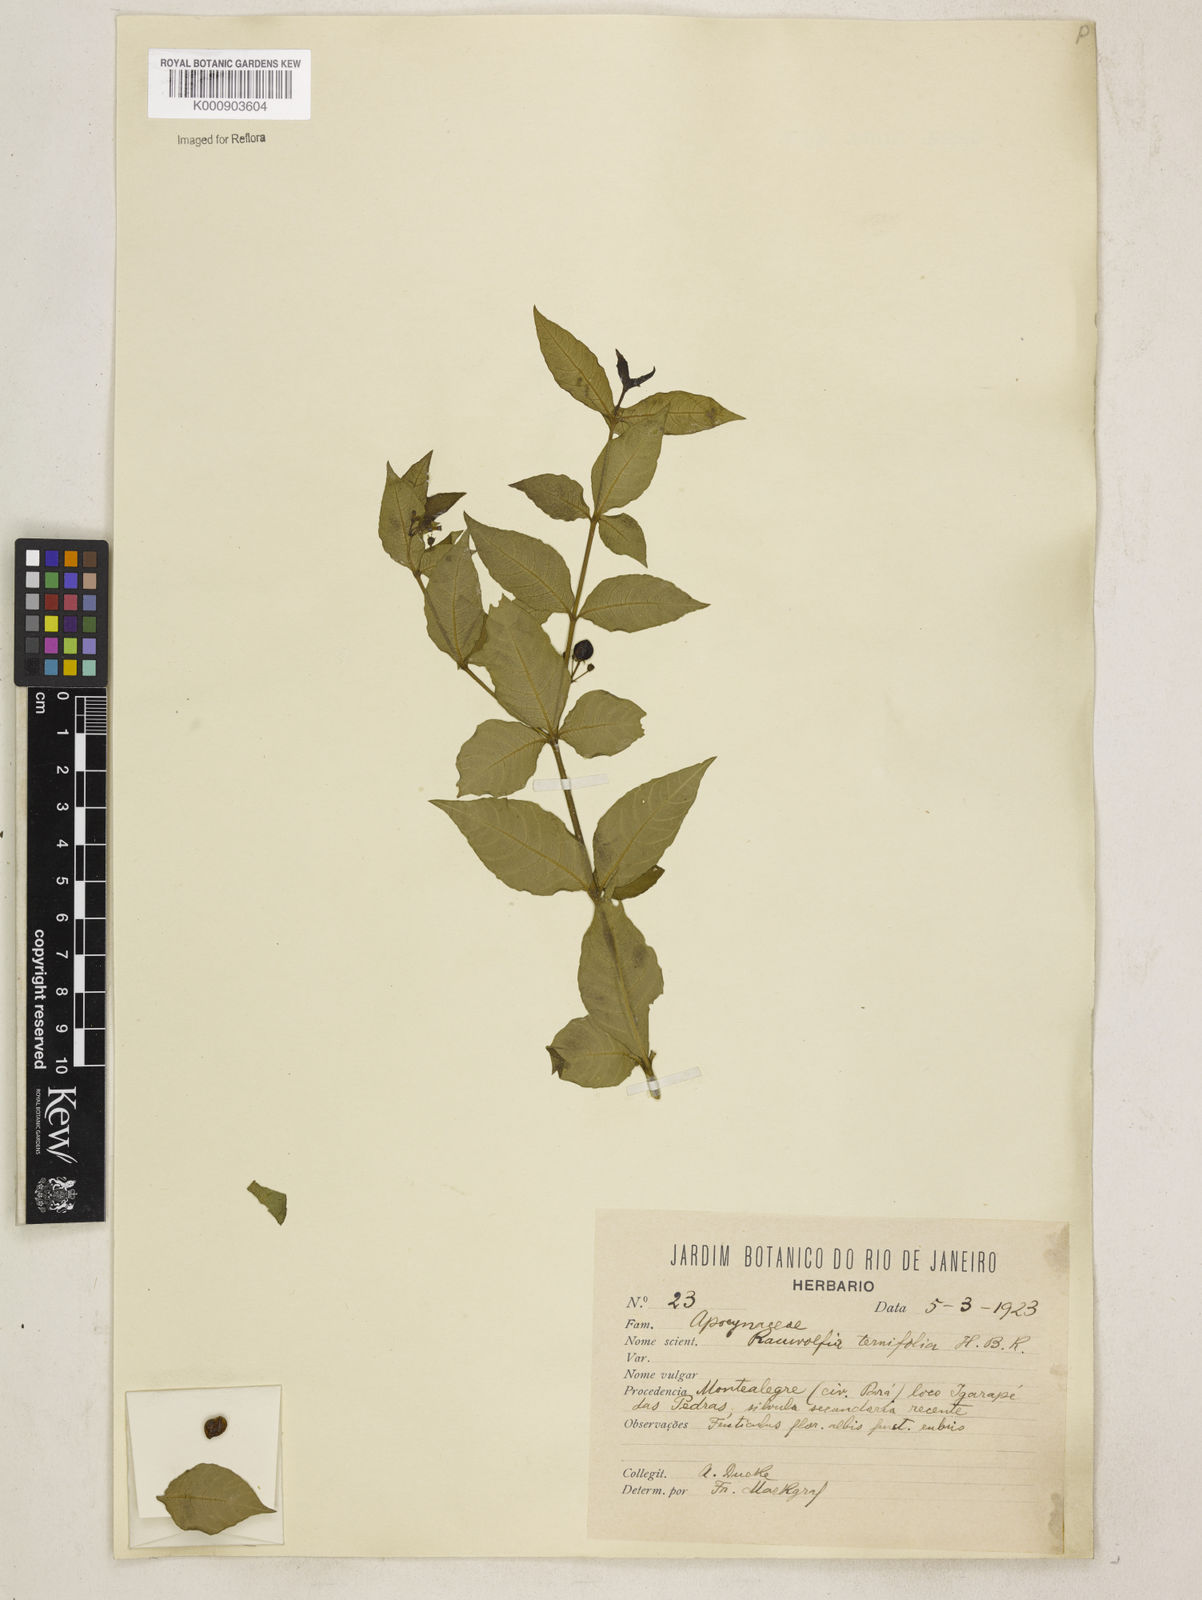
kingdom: Plantae
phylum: Tracheophyta
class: Magnoliopsida
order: Gentianales
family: Apocynaceae
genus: Rauvolfia
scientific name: Rauvolfia
